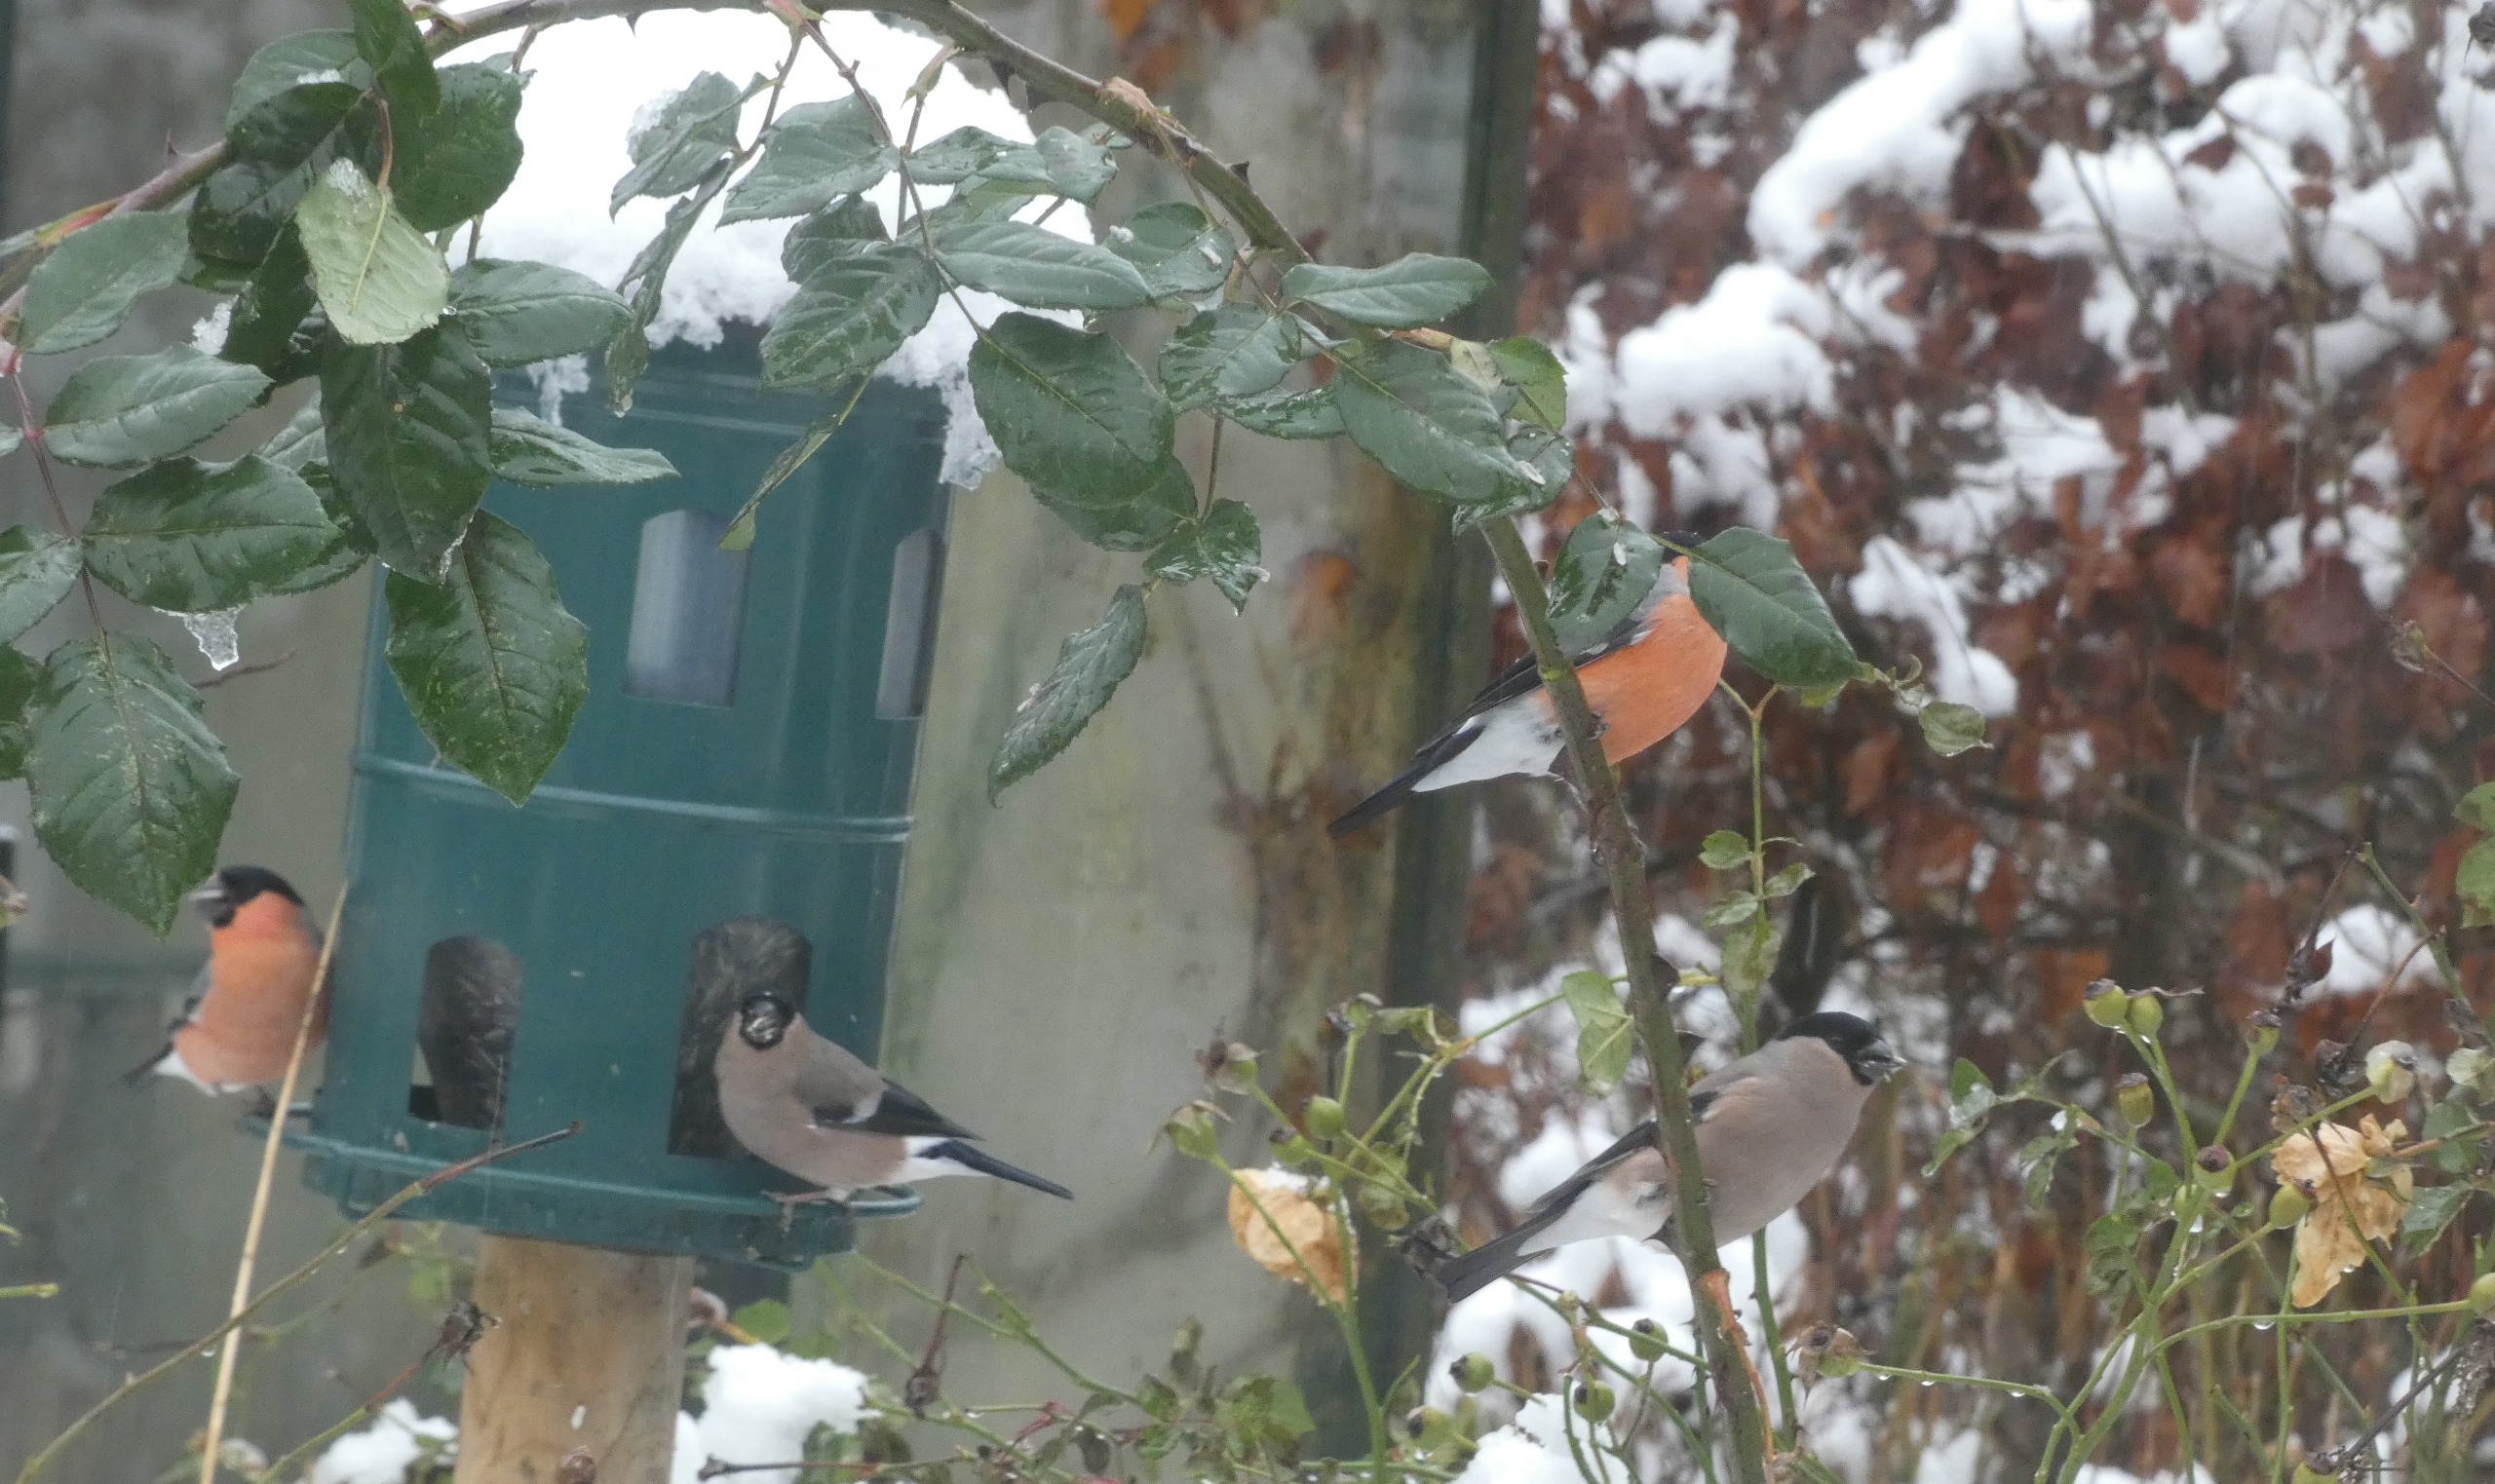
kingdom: Animalia
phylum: Chordata
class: Aves
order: Passeriformes
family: Fringillidae
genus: Pyrrhula
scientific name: Pyrrhula pyrrhula
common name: Dompap
